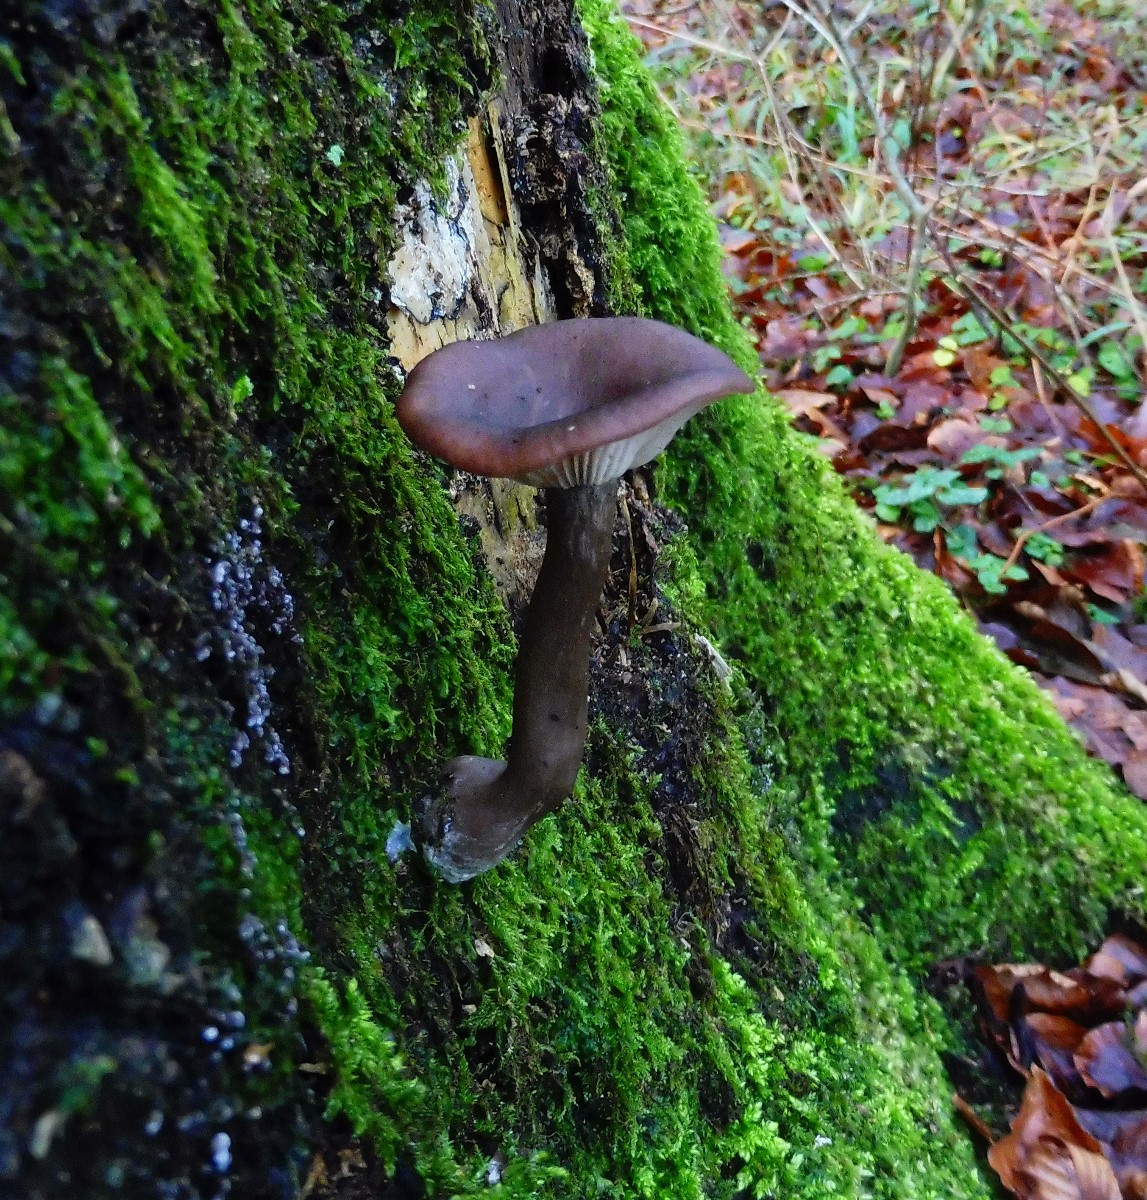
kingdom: Fungi
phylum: Basidiomycota
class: Agaricomycetes
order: Agaricales
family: Pseudoclitocybaceae
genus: Pseudoclitocybe
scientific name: Pseudoclitocybe cyathiformis
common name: almindelig bægertragthat
